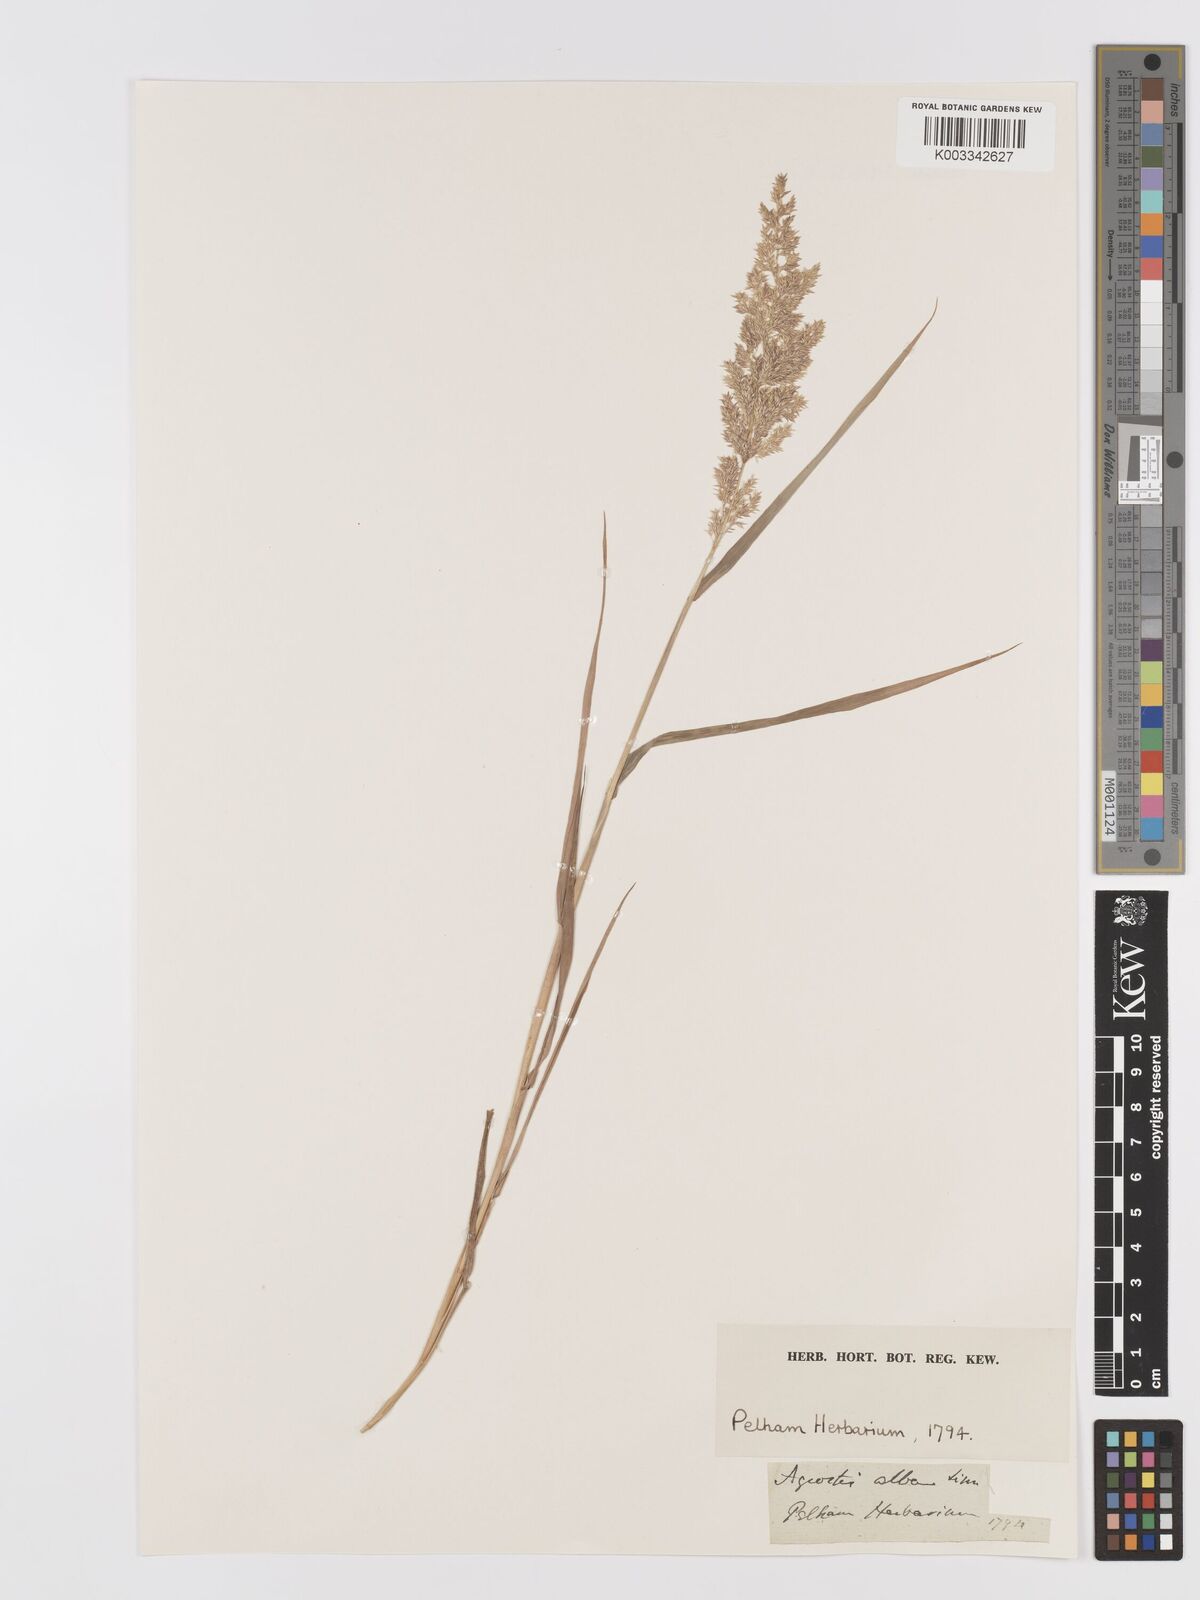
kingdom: Plantae
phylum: Tracheophyta
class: Liliopsida
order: Poales
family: Poaceae
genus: Agrostis
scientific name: Agrostis
